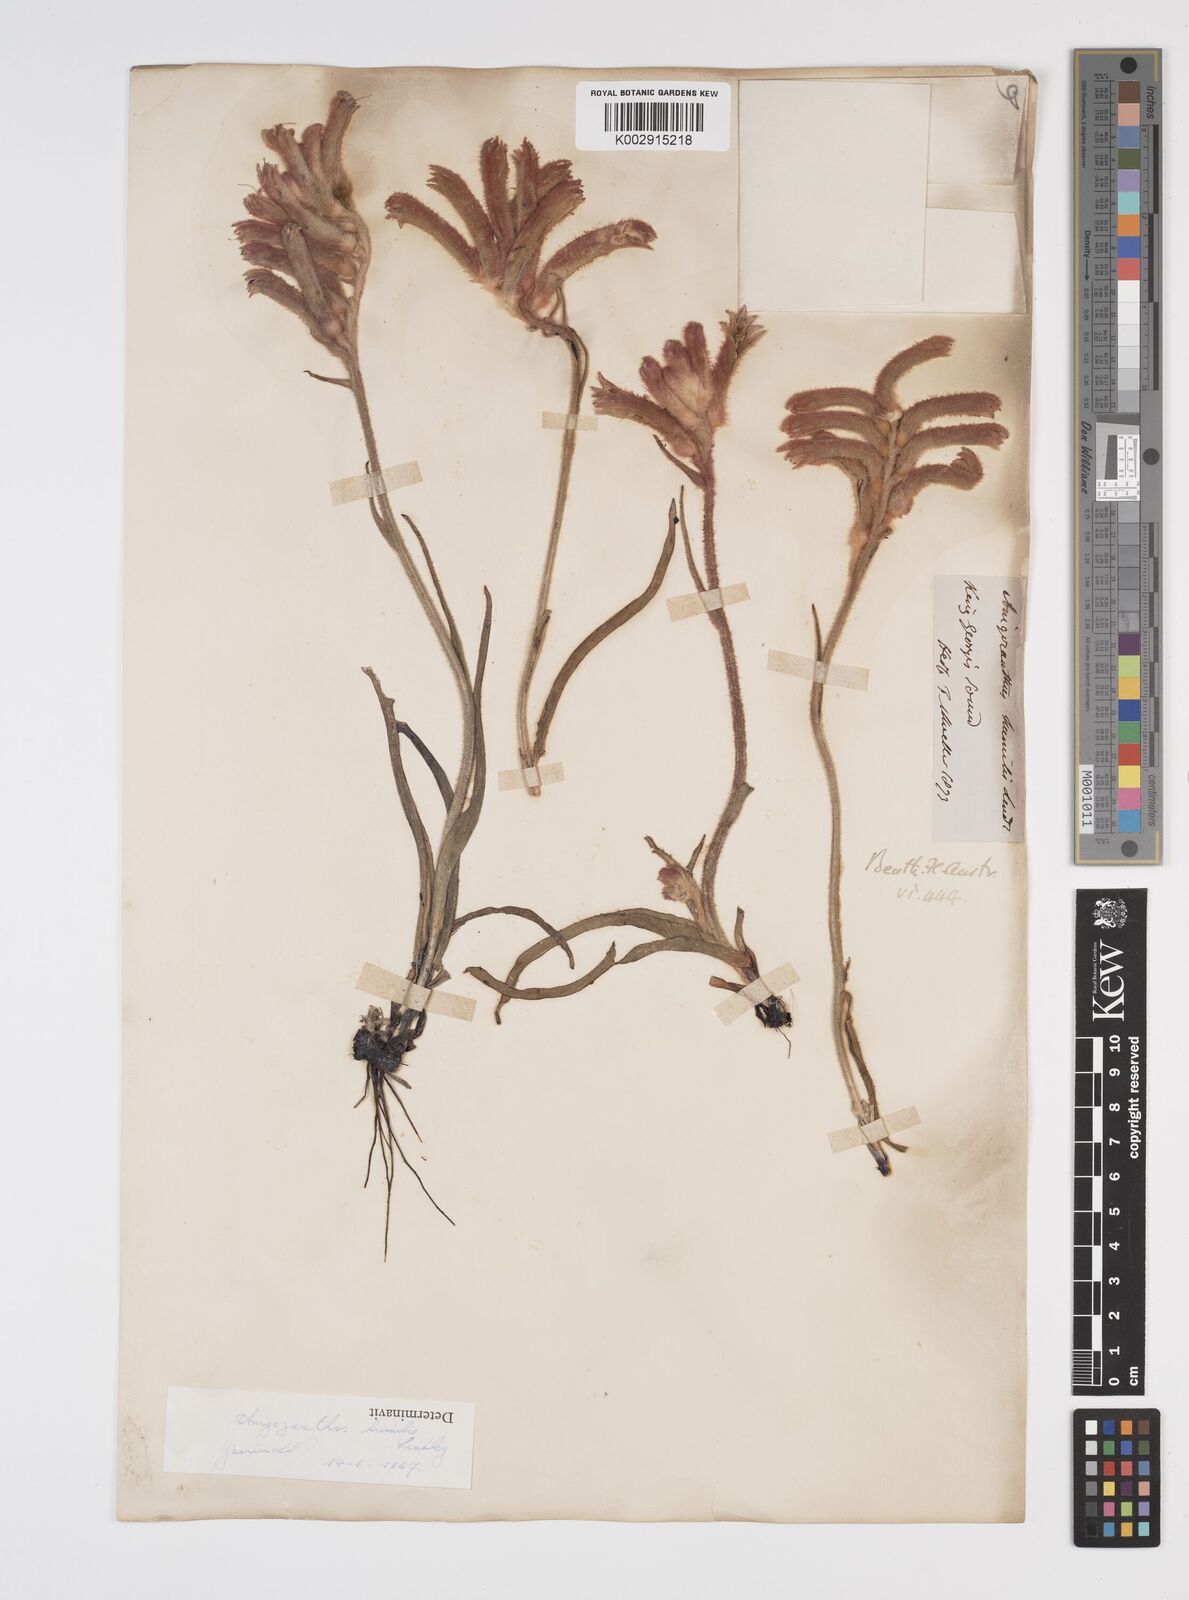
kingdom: Plantae
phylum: Tracheophyta
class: Liliopsida
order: Commelinales
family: Haemodoraceae
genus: Anigozanthos
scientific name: Anigozanthos humilis
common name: Cat's-paw
